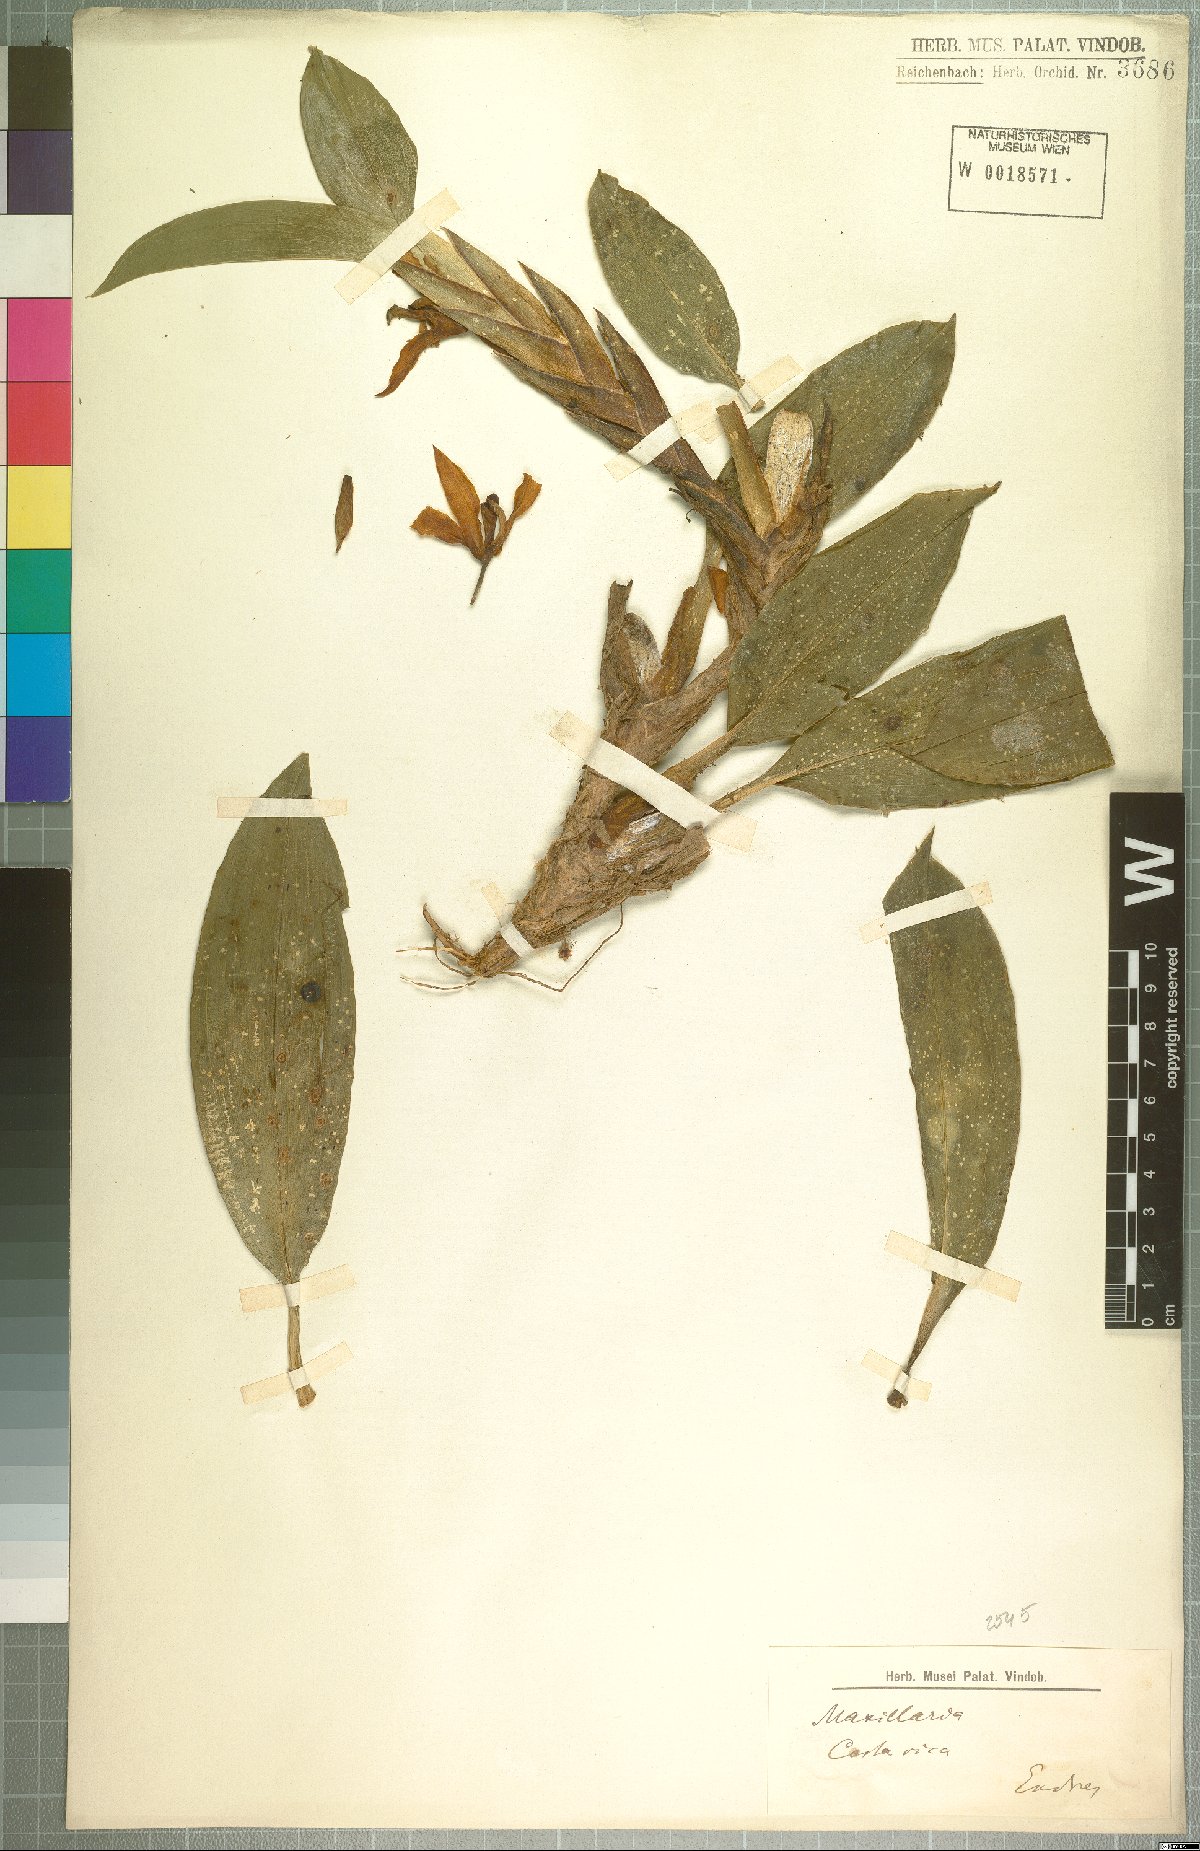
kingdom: Plantae
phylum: Tracheophyta
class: Liliopsida
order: Asparagales
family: Orchidaceae
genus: Maxillaria
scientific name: Maxillaria
